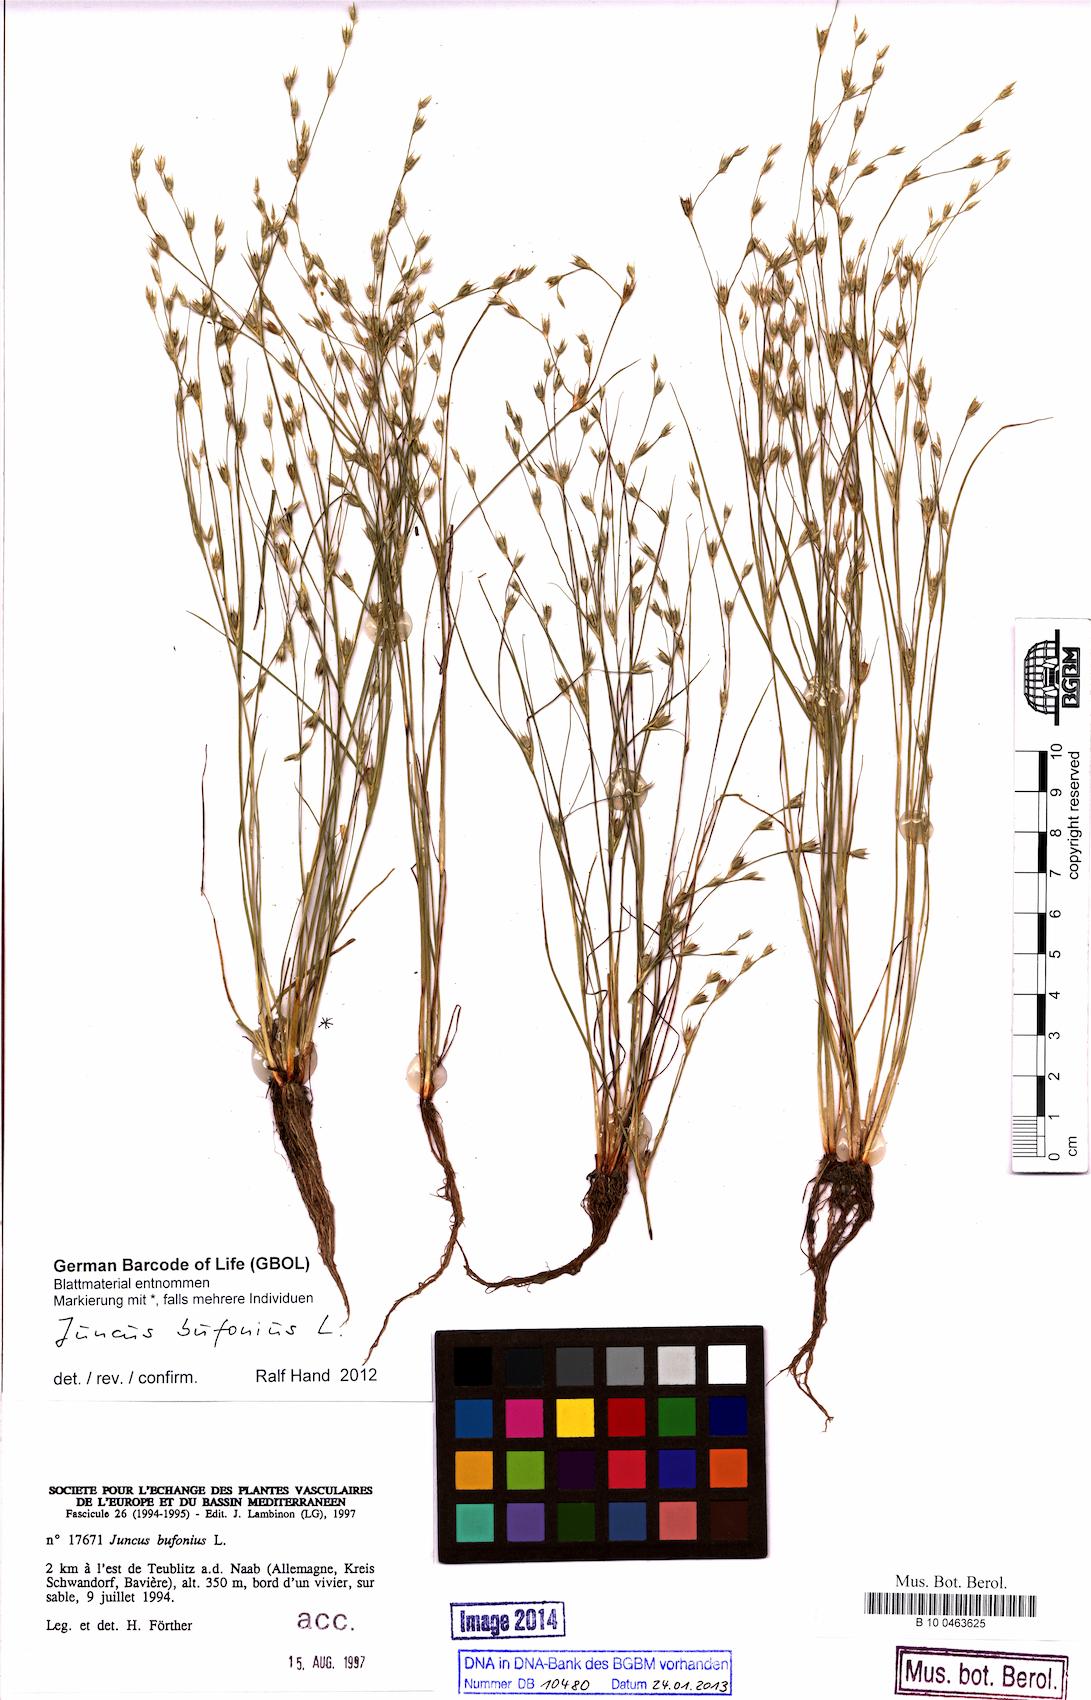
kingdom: Plantae
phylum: Tracheophyta
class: Liliopsida
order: Poales
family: Juncaceae
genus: Juncus
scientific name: Juncus bufonius
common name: Toad rush
